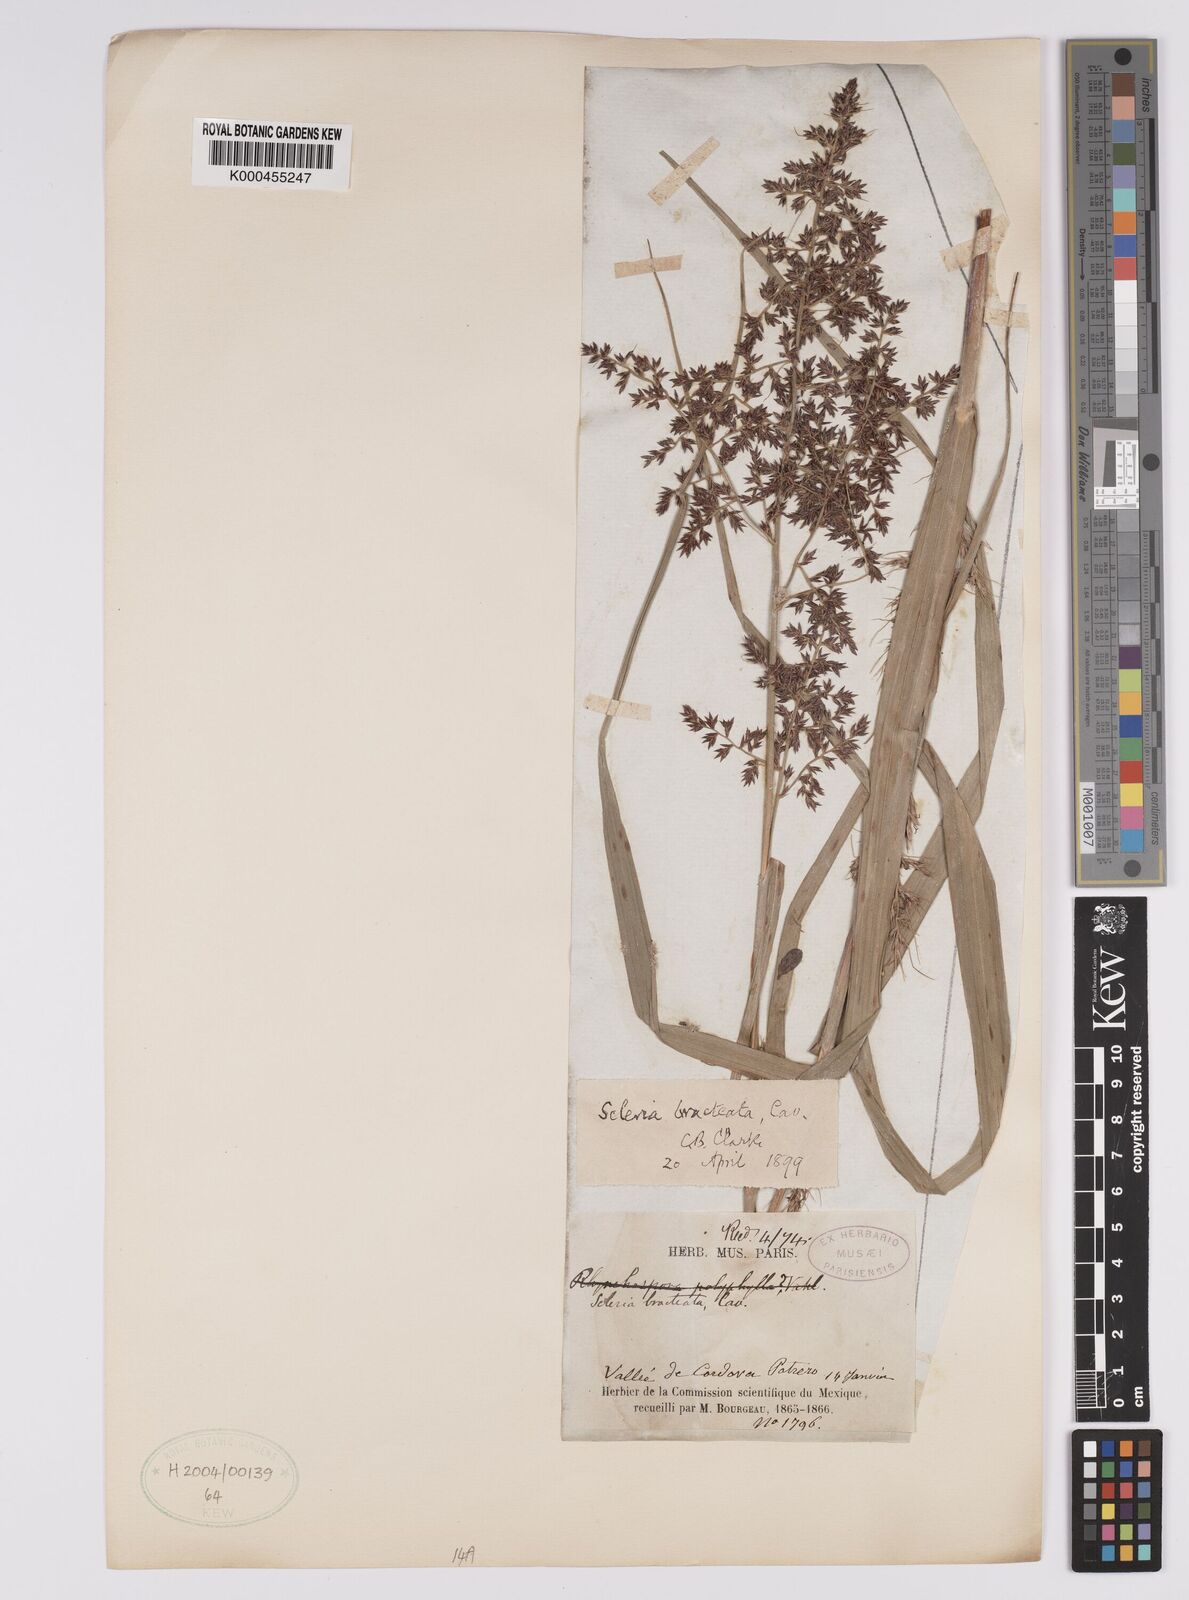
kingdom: Plantae
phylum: Tracheophyta
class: Liliopsida
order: Poales
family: Cyperaceae
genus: Scleria
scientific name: Scleria bracteata
